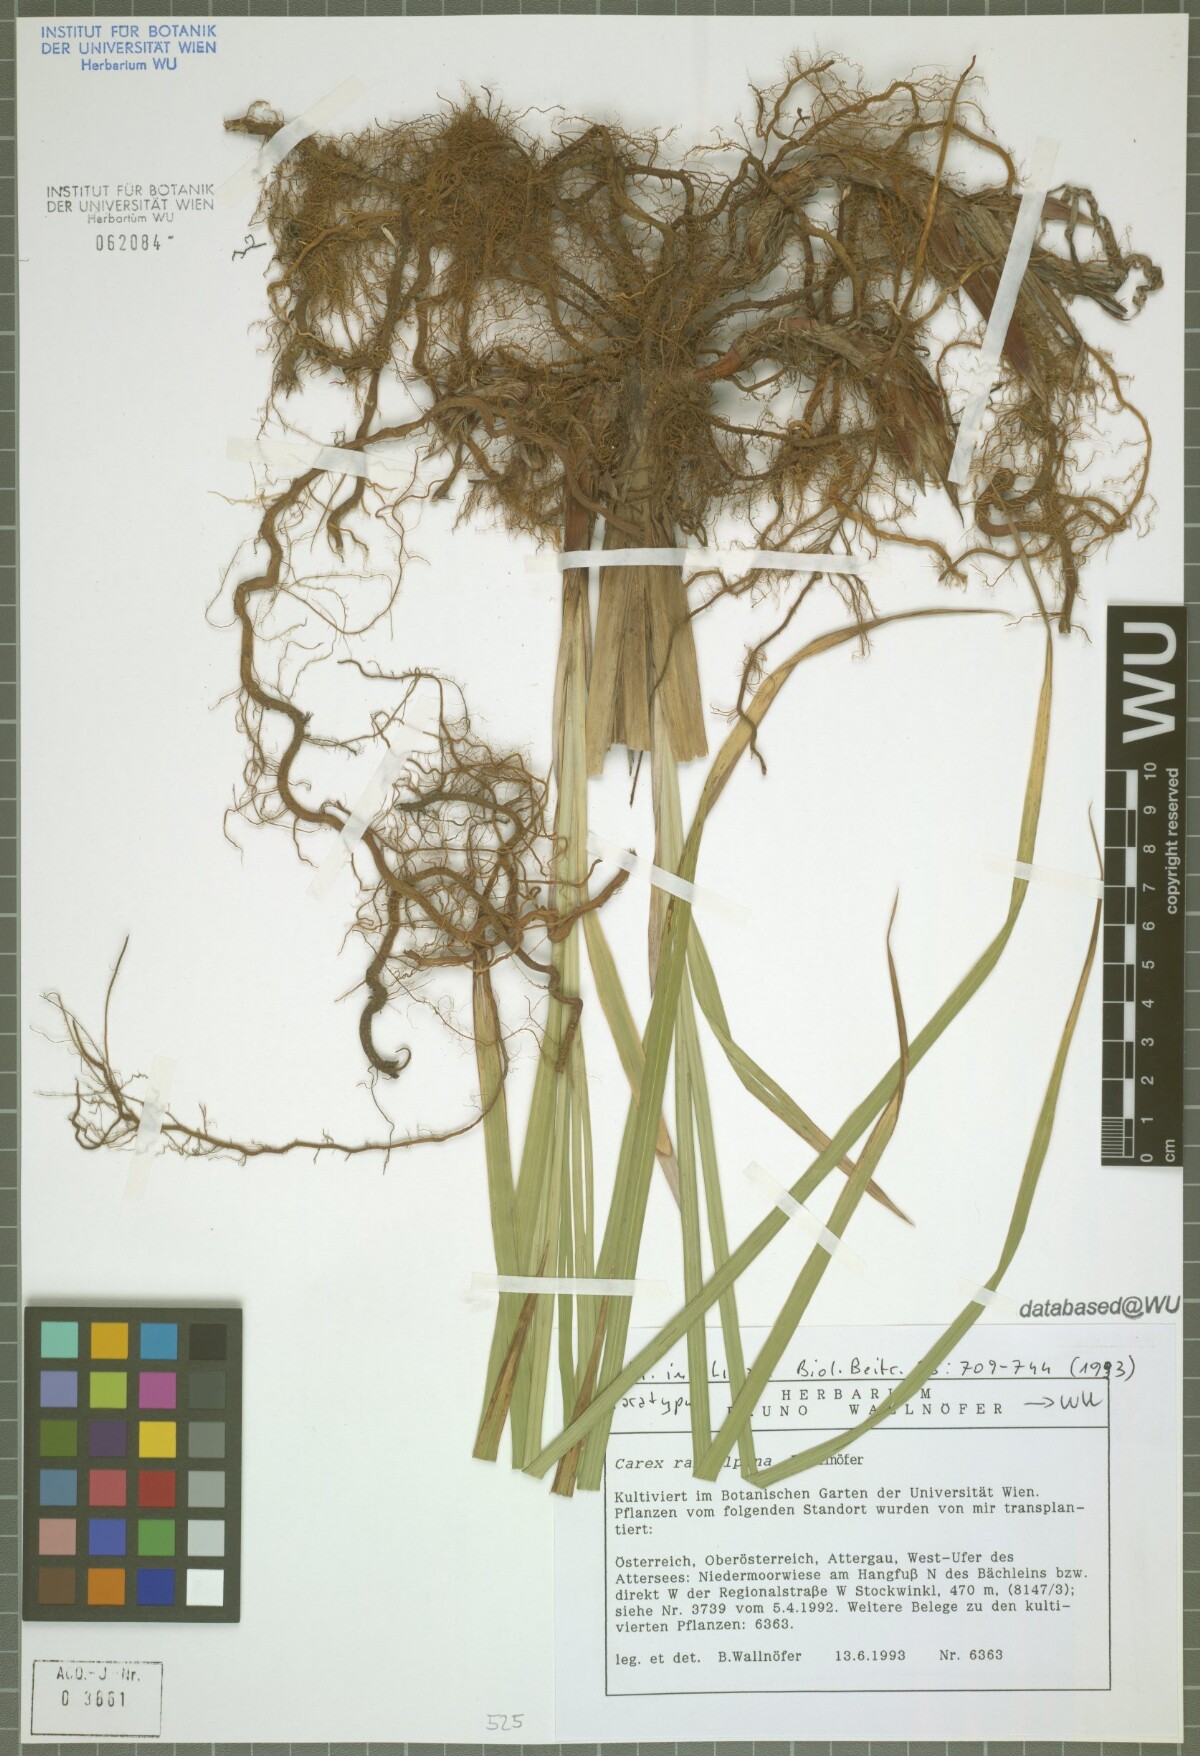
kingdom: Plantae
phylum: Tracheophyta
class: Liliopsida
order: Poales
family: Cyperaceae
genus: Carex
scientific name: Carex randalpina
